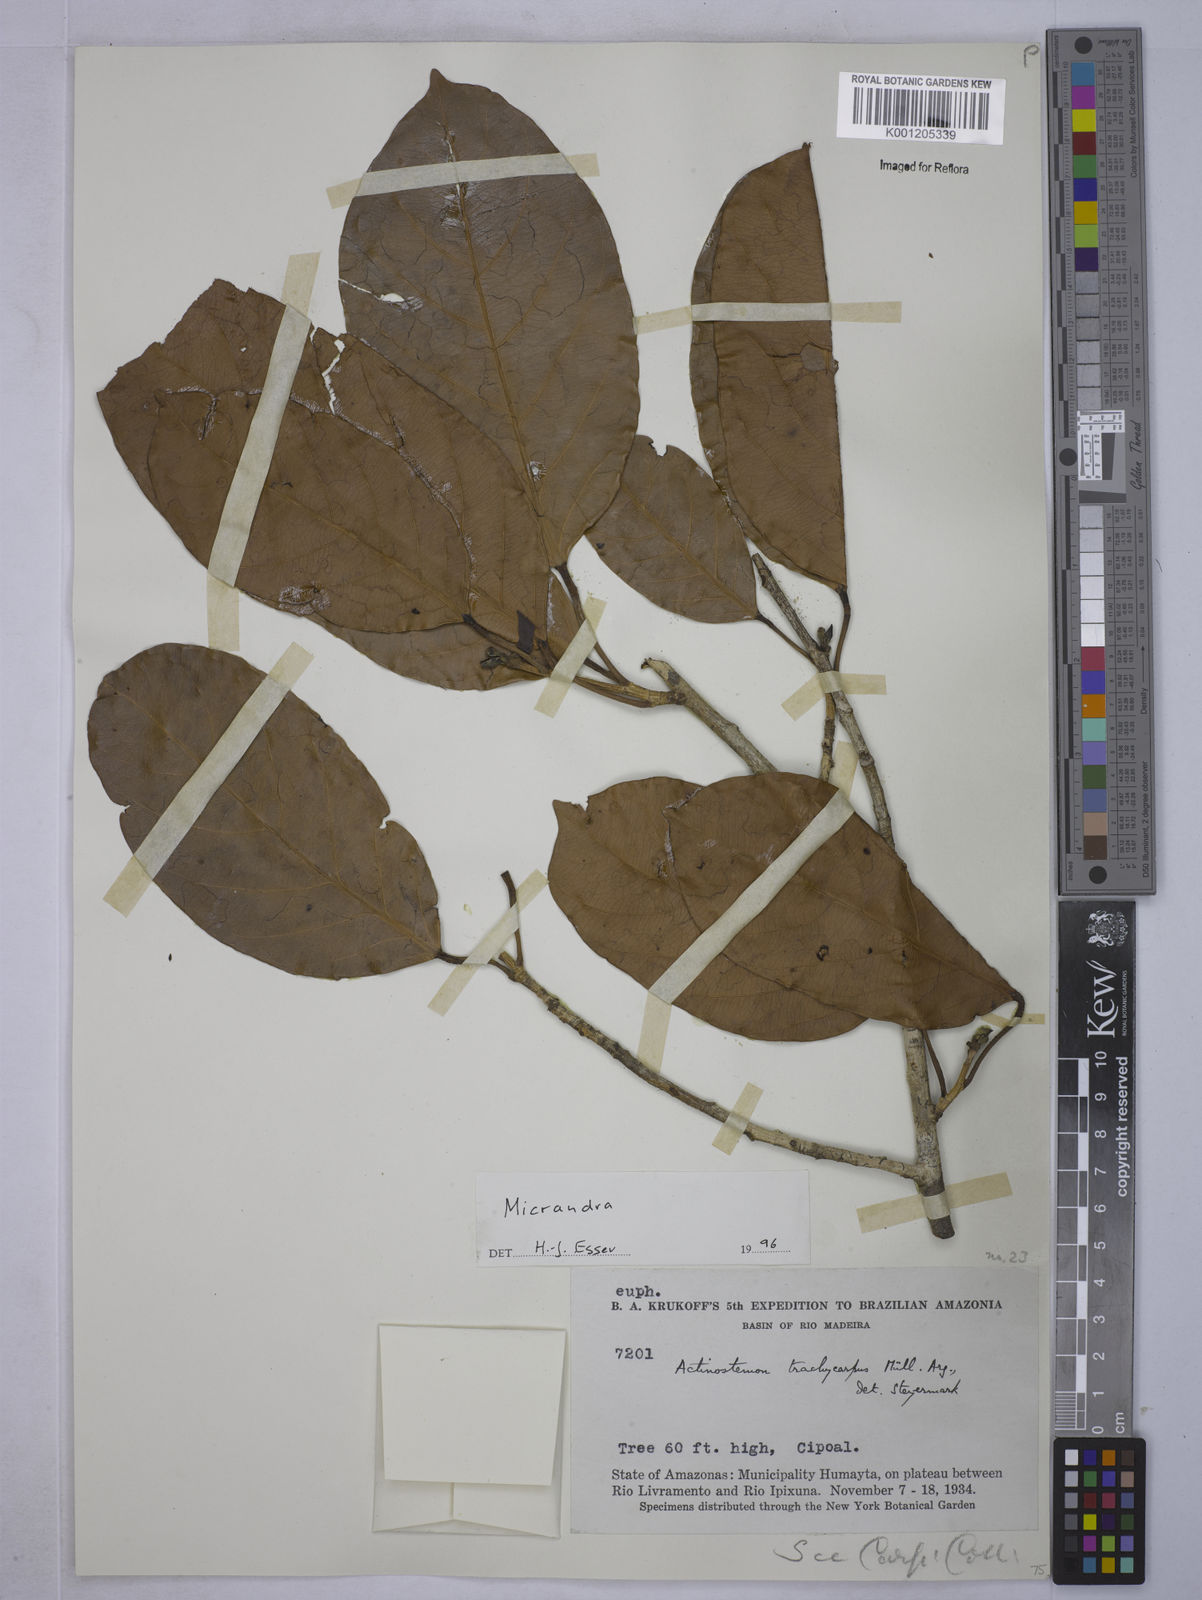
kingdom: Plantae
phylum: Tracheophyta
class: Magnoliopsida
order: Malpighiales
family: Euphorbiaceae
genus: Micrandra
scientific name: Micrandra
